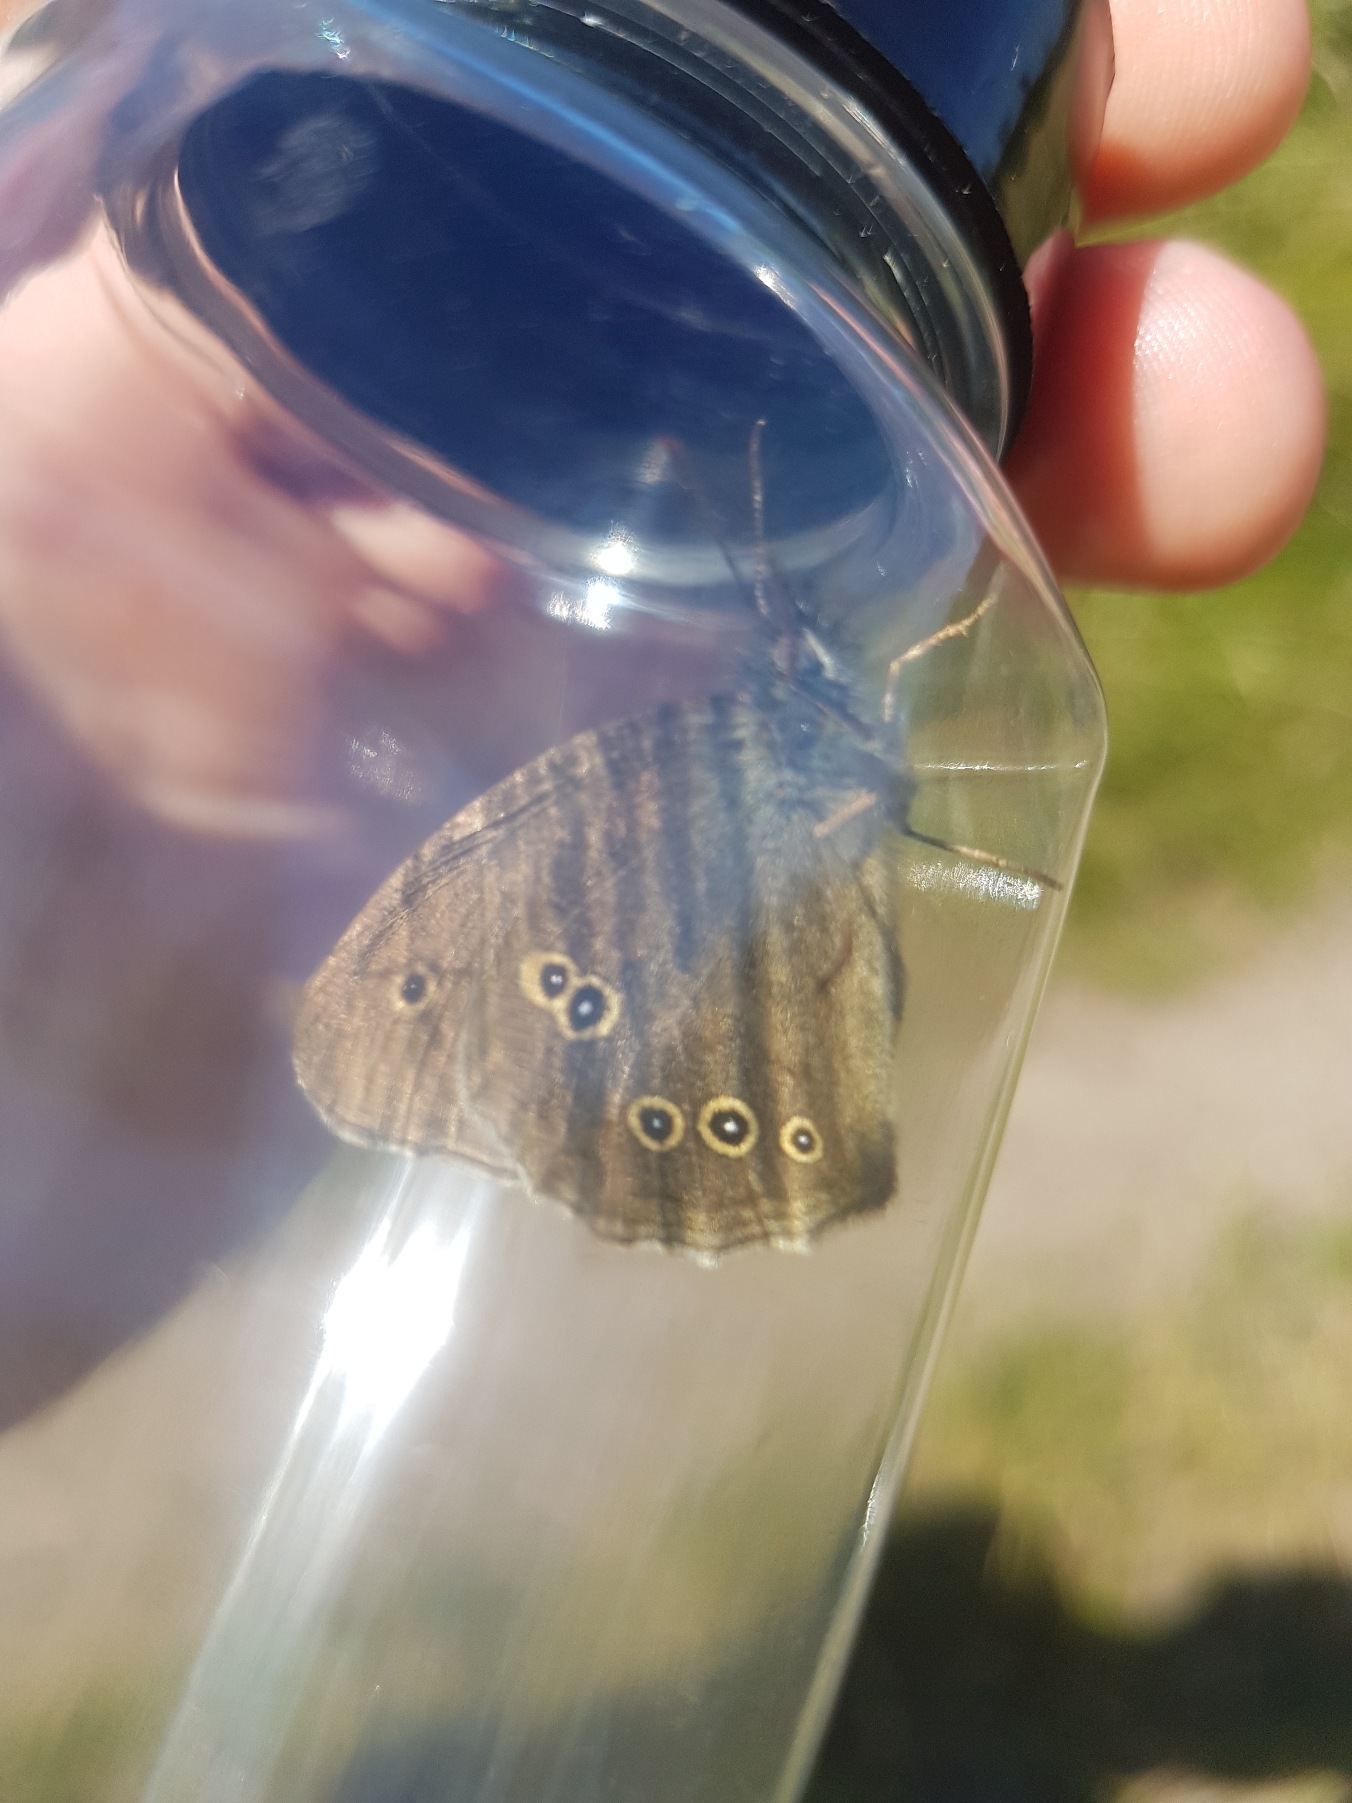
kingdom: Animalia
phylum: Arthropoda
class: Insecta
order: Lepidoptera
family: Nymphalidae
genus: Aphantopus
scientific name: Aphantopus hyperantus
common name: Engrandøje
